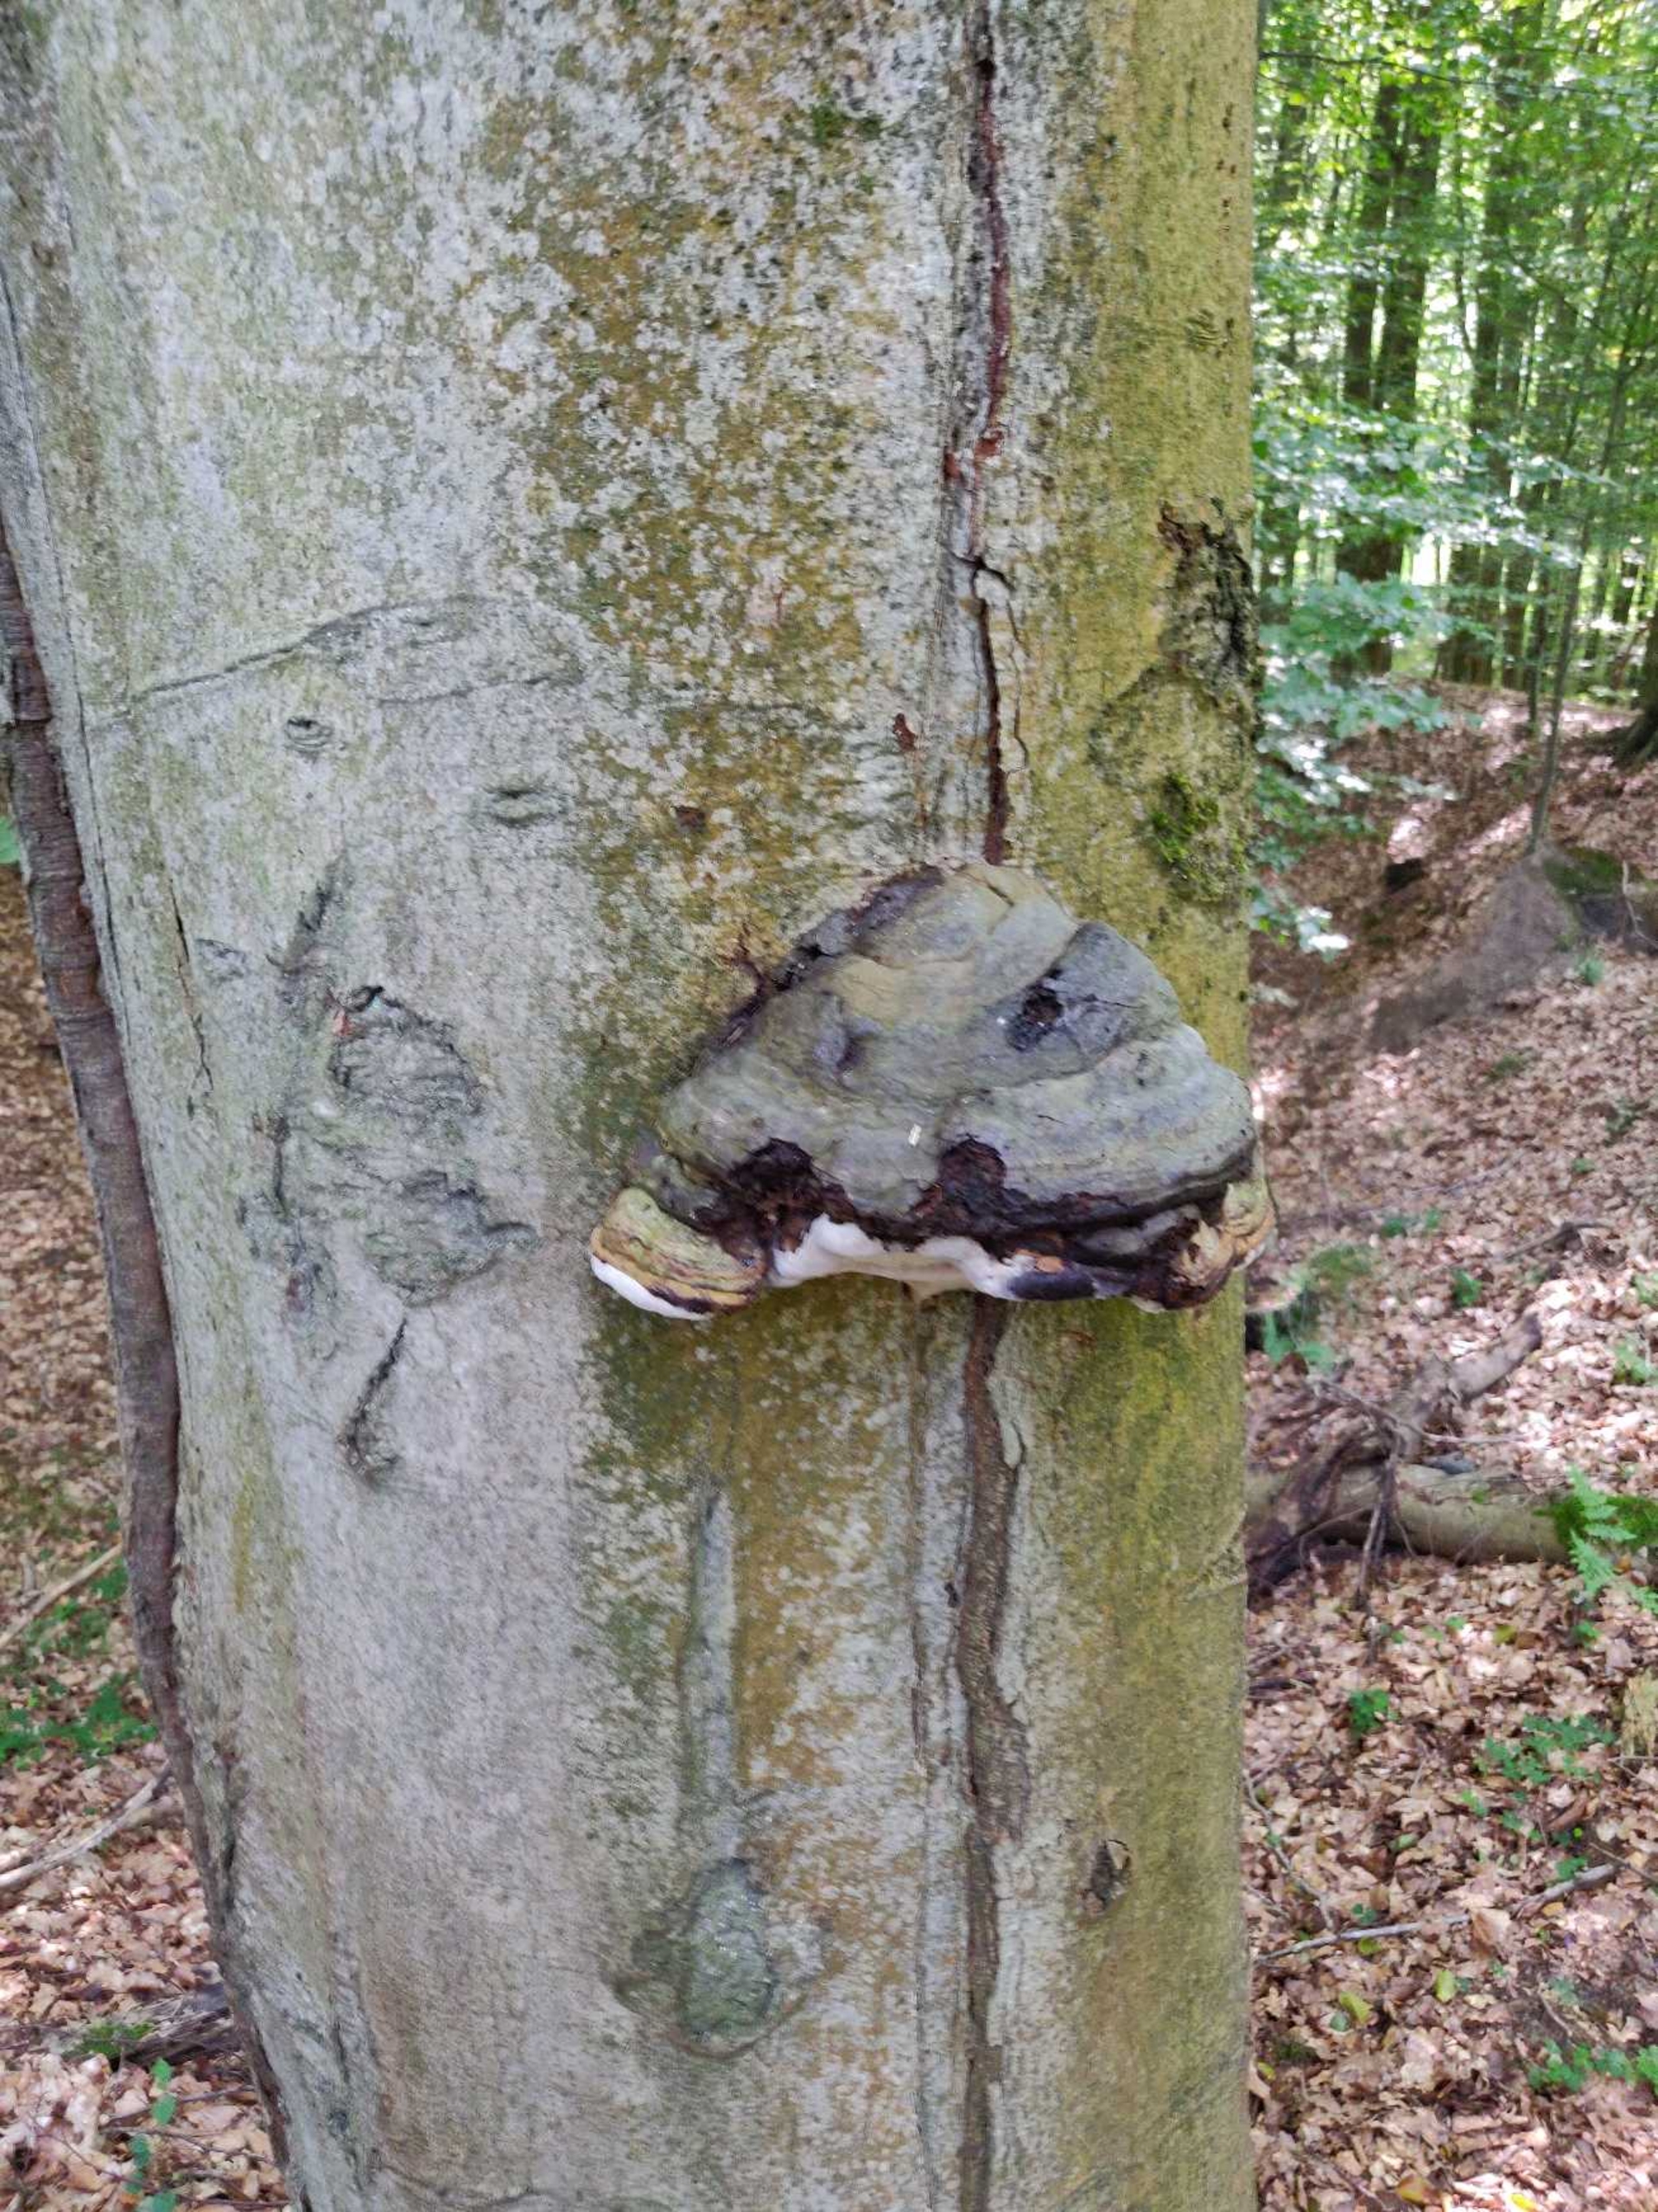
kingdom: Fungi
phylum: Basidiomycota
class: Agaricomycetes
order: Polyporales
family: Polyporaceae
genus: Fomes
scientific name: Fomes fomentarius
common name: Tøndersvamp
